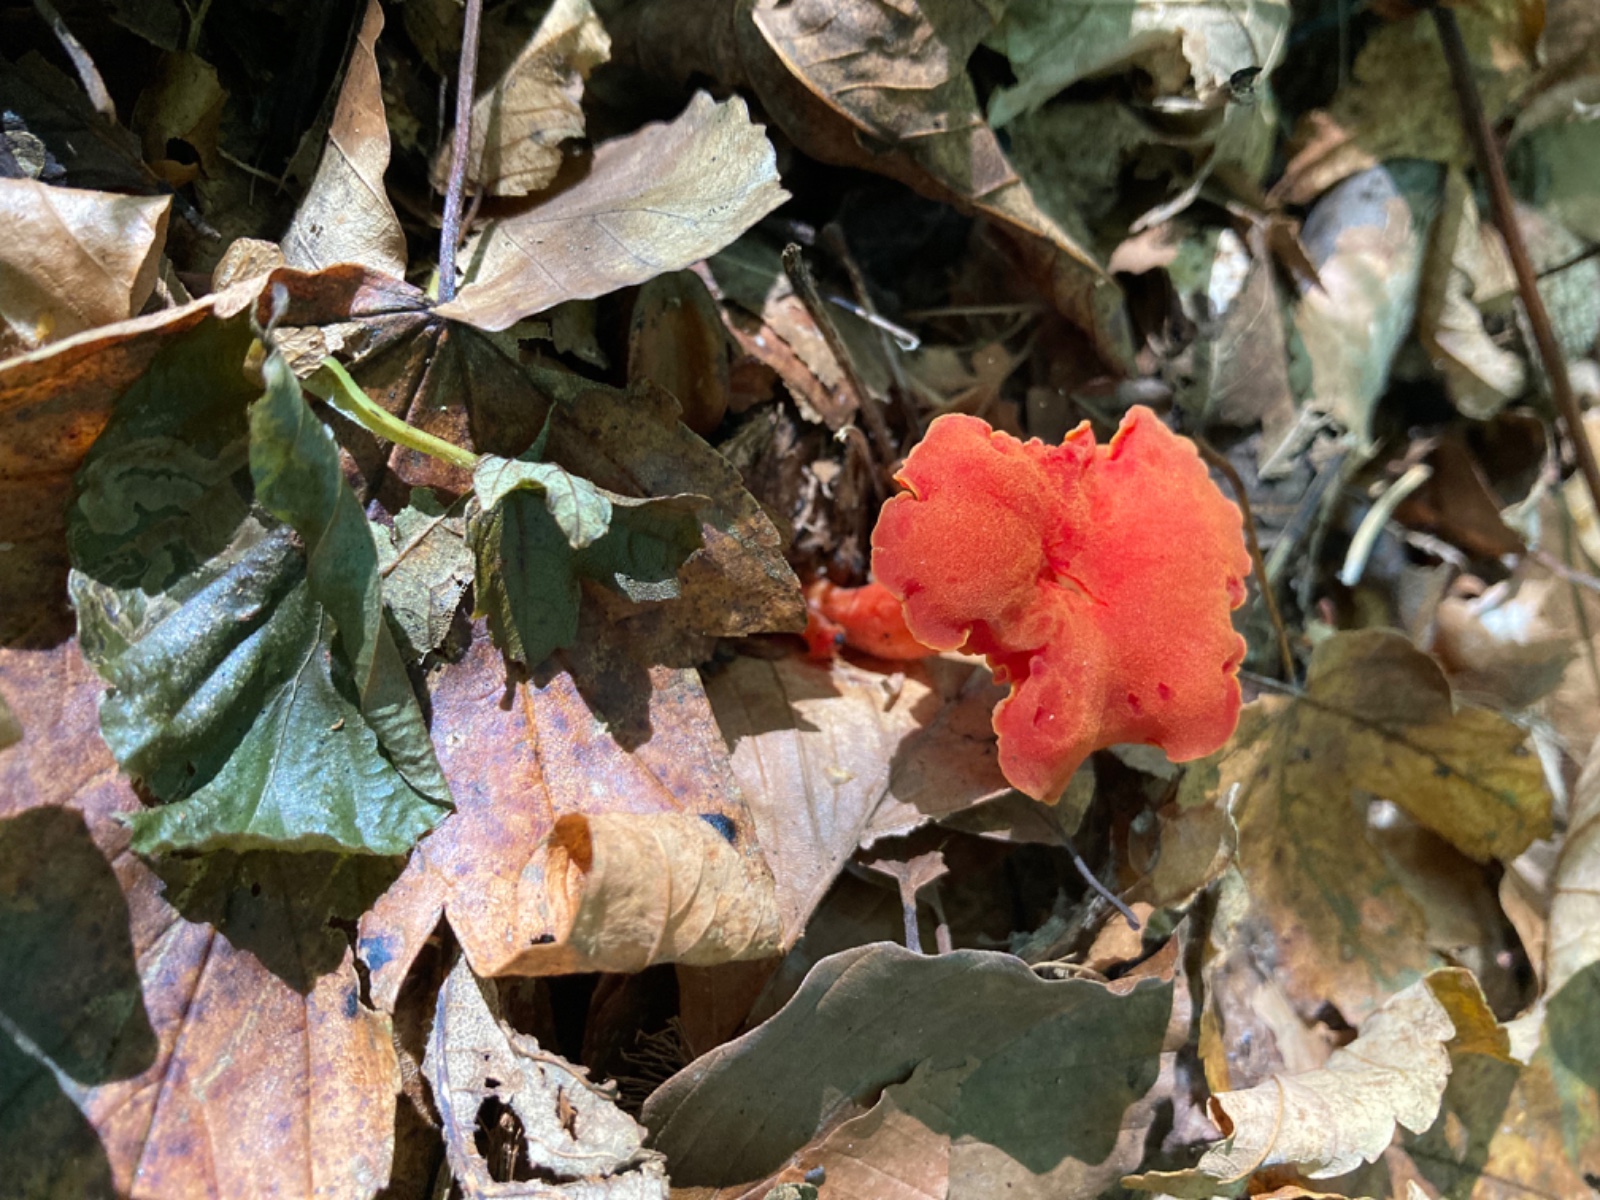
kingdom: Fungi
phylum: Basidiomycota
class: Agaricomycetes
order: Agaricales
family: Hygrophoraceae
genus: Hygrocybe
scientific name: Hygrocybe miniata
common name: mønje-vokshat
